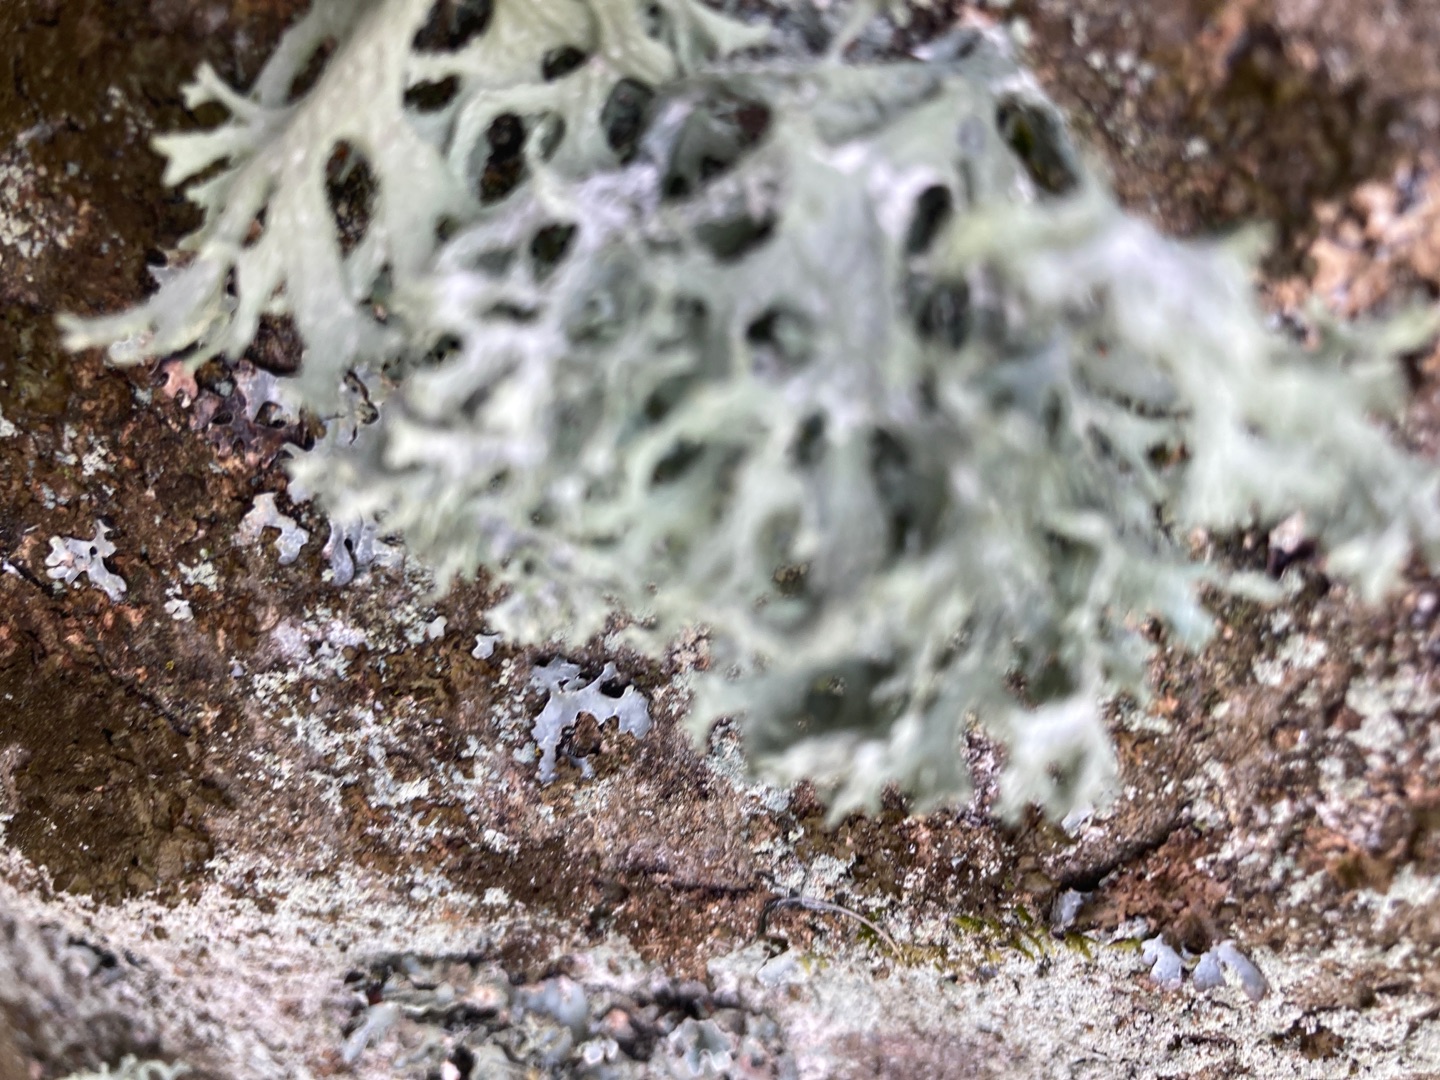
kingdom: Fungi
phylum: Ascomycota
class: Lecanoromycetes
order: Lecanorales
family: Parmeliaceae
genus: Evernia
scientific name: Evernia prunastri
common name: Almindelig slåenlav
